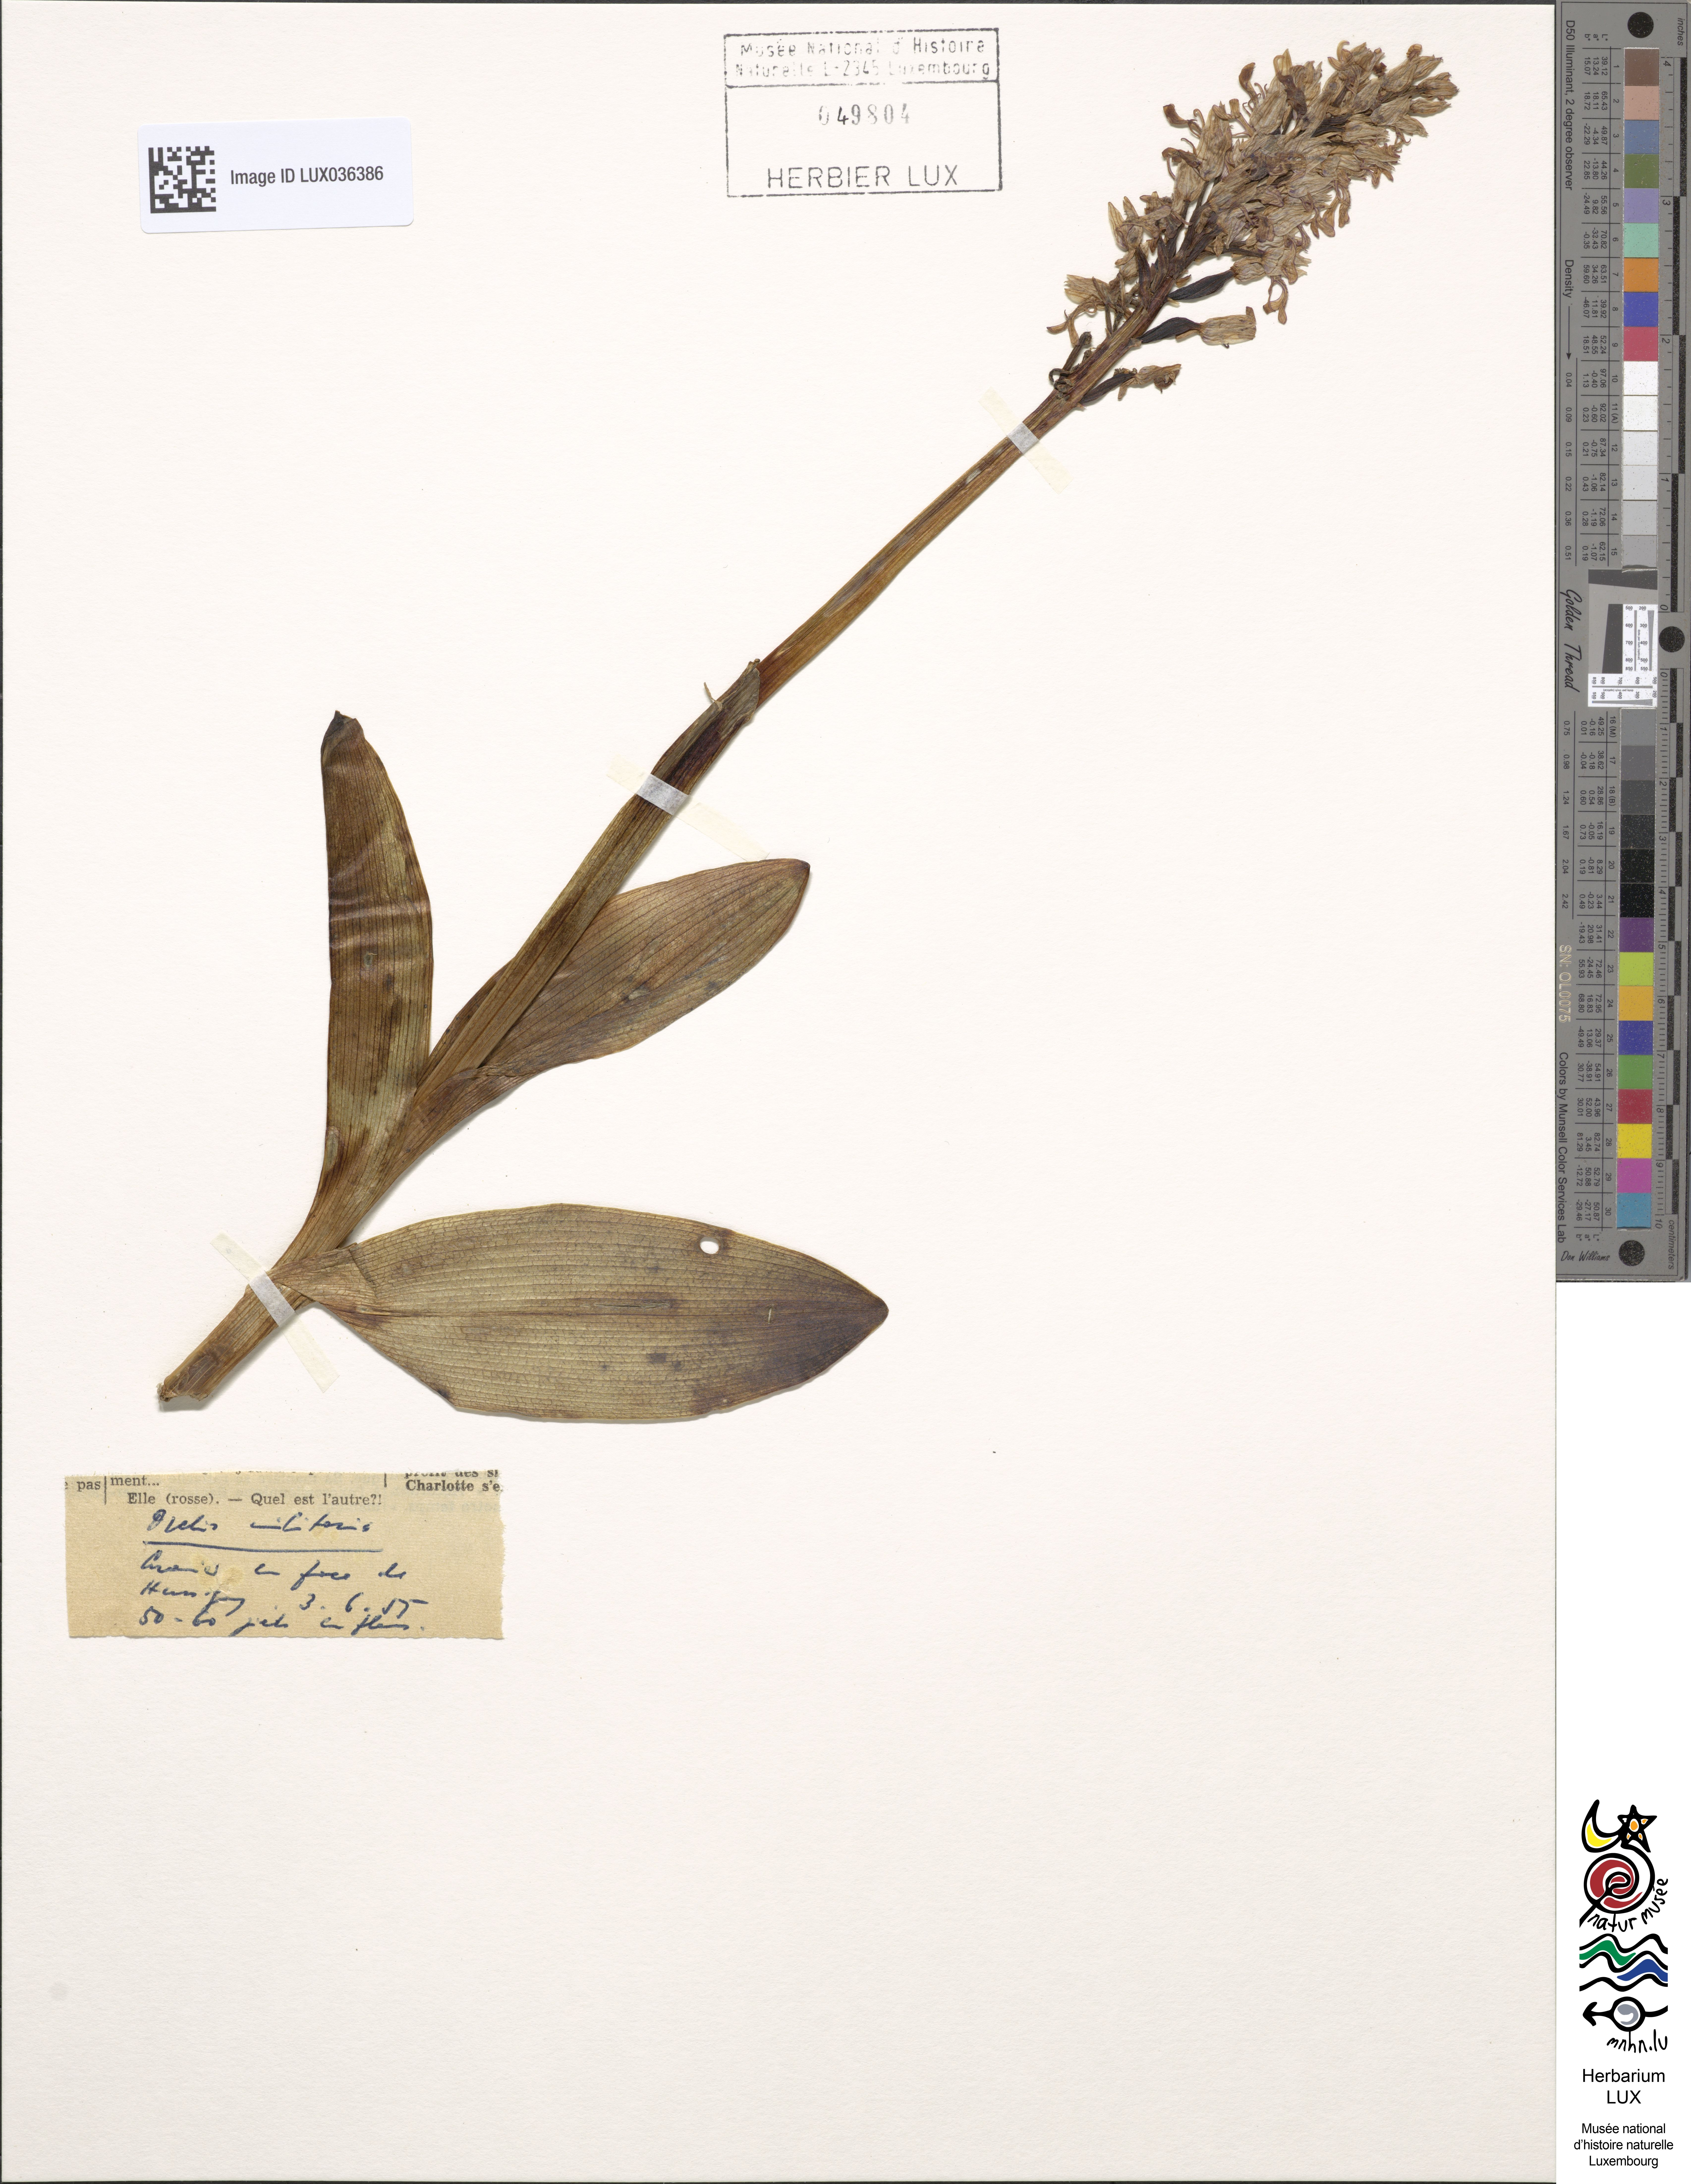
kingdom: Plantae
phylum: Tracheophyta
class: Liliopsida
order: Asparagales
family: Orchidaceae
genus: Orchis
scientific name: Orchis militaris
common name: Military orchid
